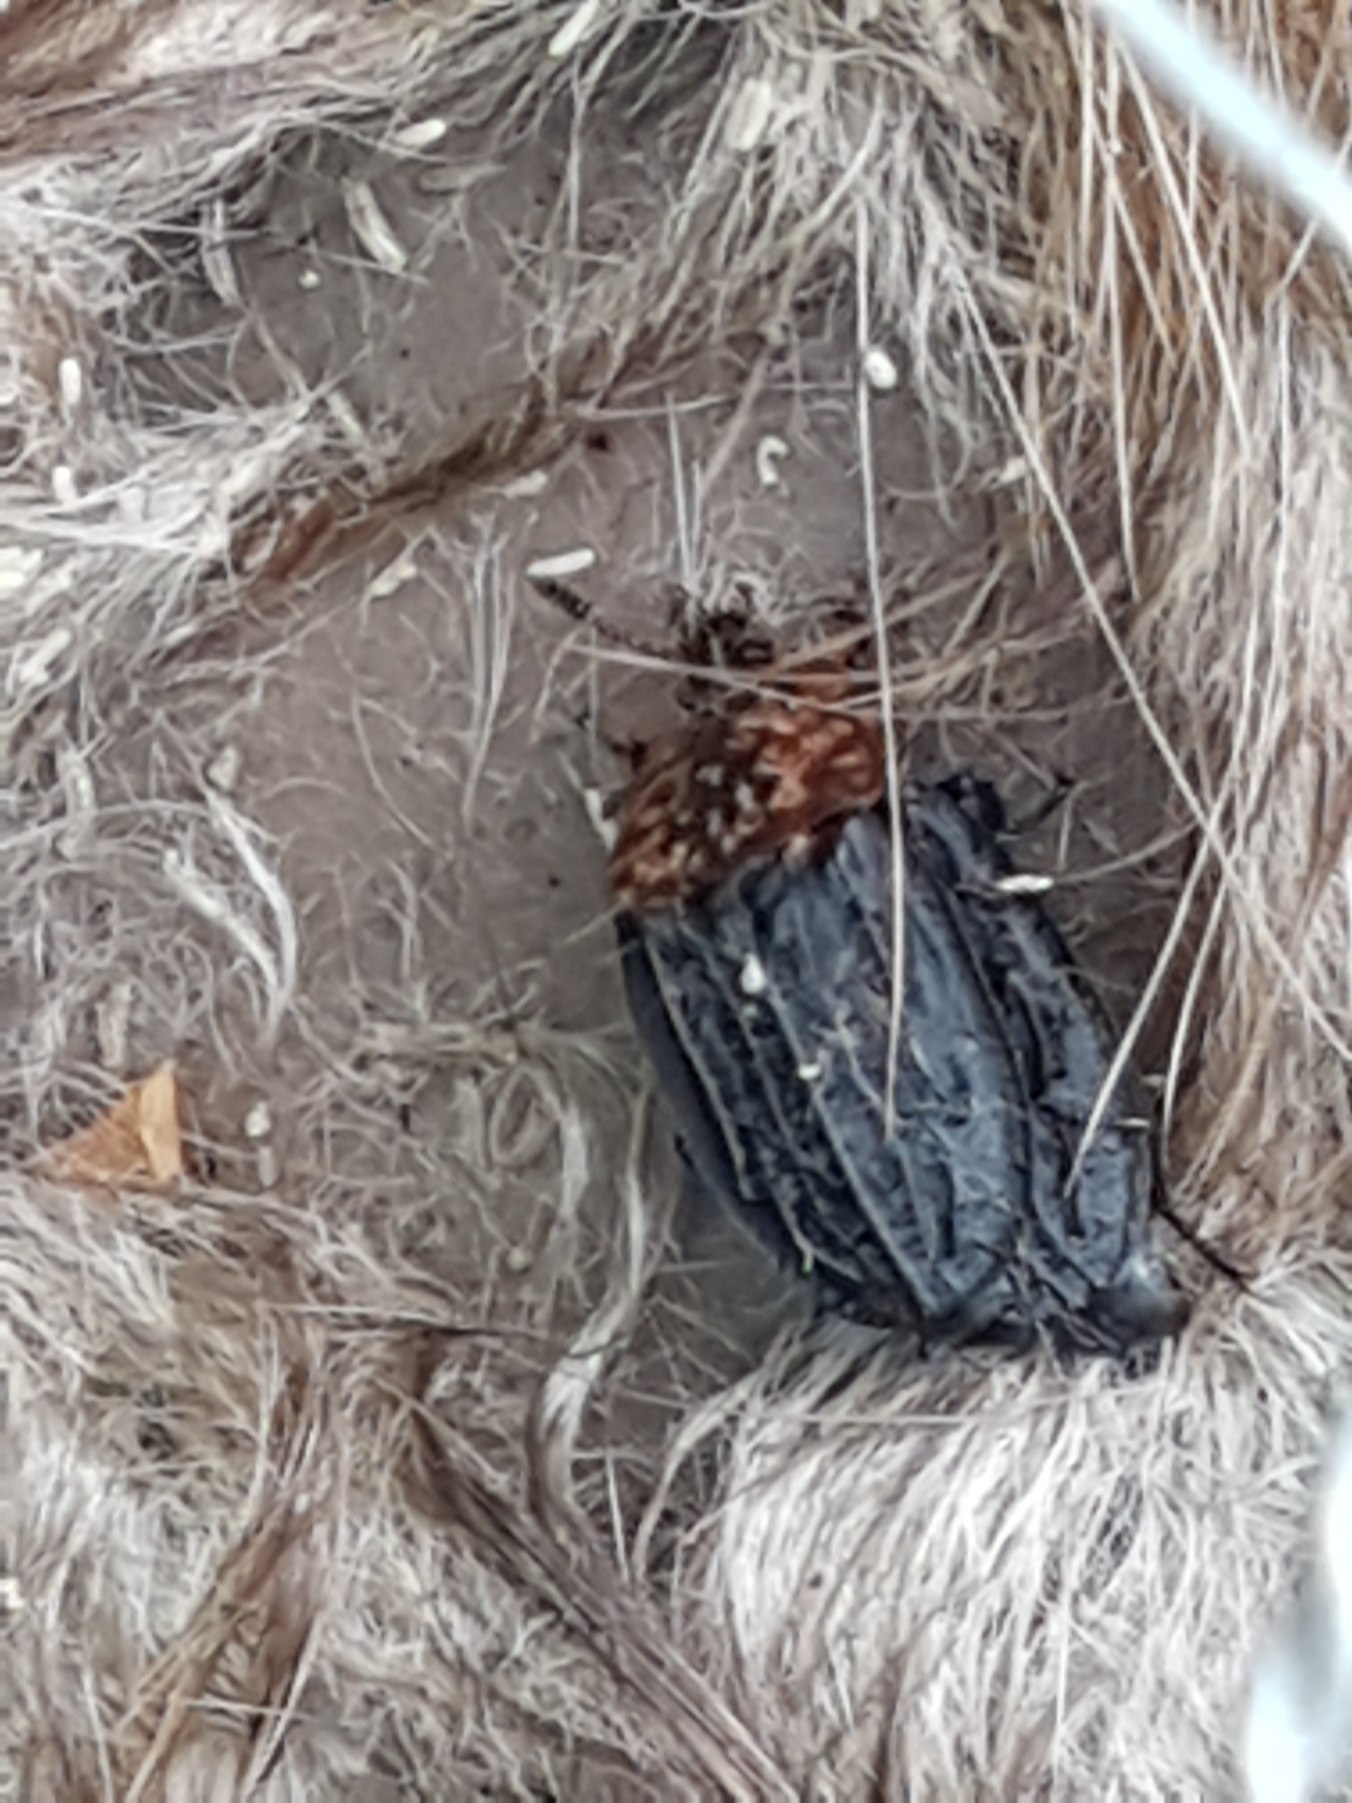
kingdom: Animalia
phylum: Arthropoda
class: Insecta
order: Coleoptera
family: Staphylinidae
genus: Oiceoptoma
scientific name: Oiceoptoma thoracicum
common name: Rødbrystet ådselbille
